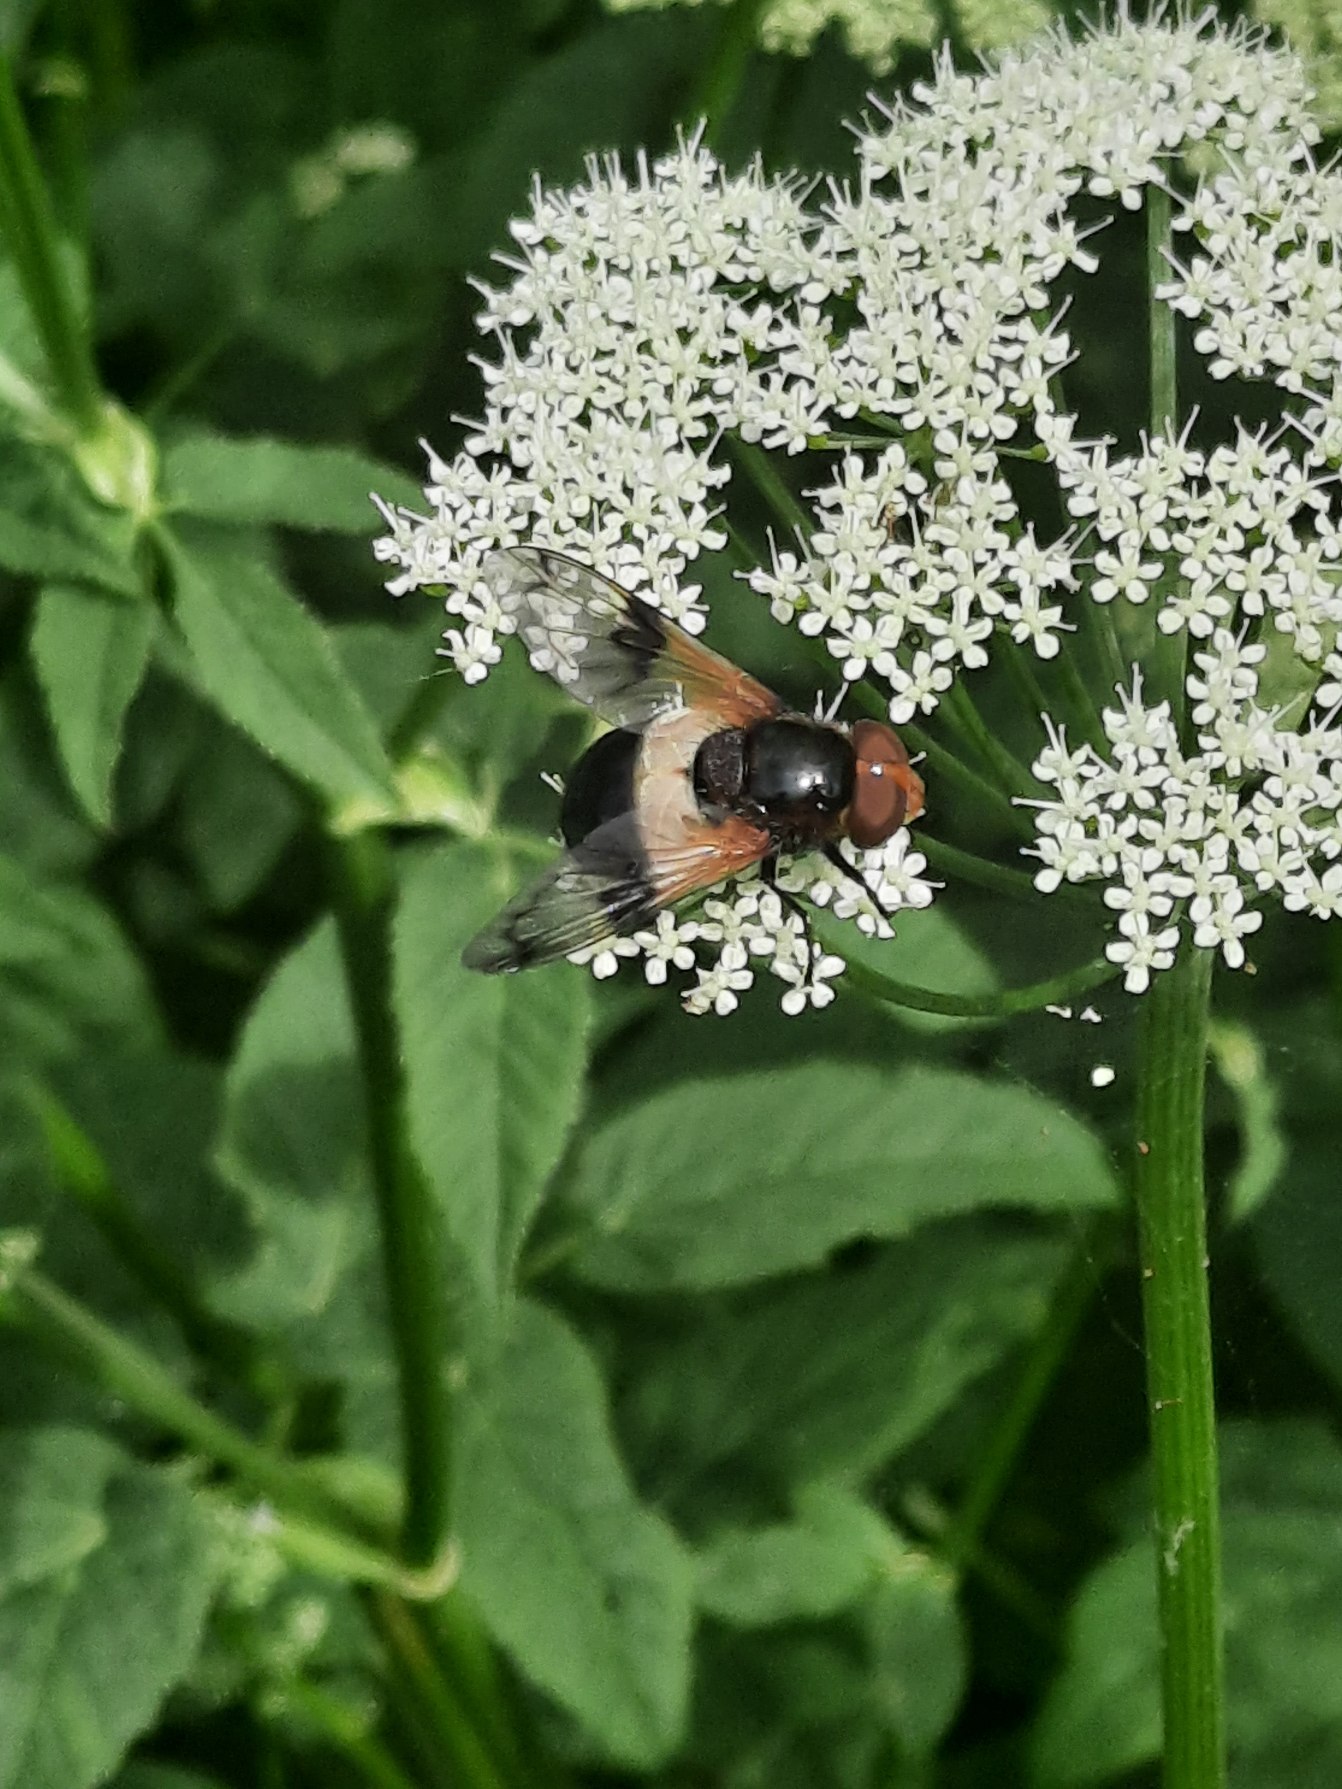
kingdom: Animalia
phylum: Arthropoda
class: Insecta
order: Diptera
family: Syrphidae
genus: Volucella
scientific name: Volucella pellucens
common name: Hvidbåndet humlesvirreflue
